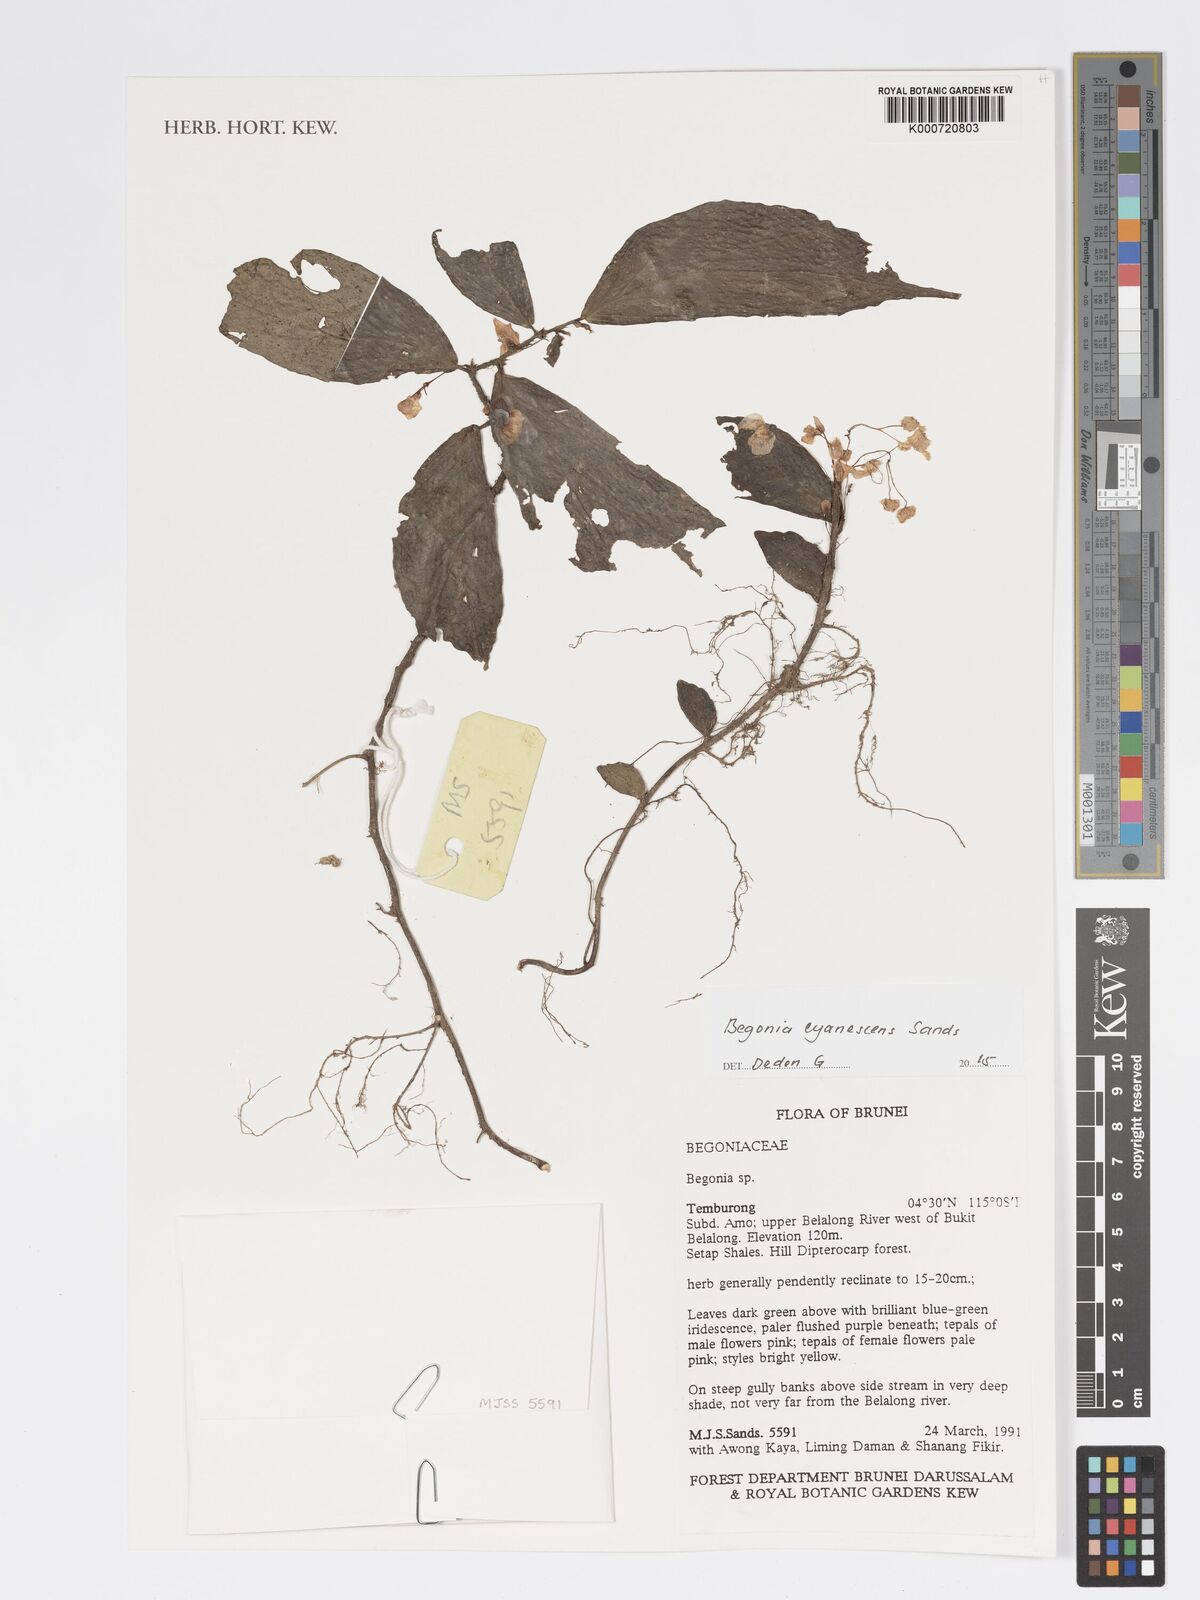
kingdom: Plantae
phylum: Tracheophyta
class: Magnoliopsida
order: Cucurbitales
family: Begoniaceae
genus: Begonia
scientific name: Begonia cyanescens
